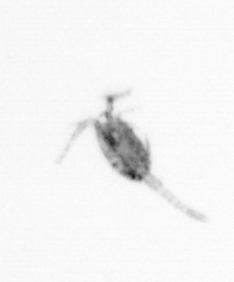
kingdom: Animalia
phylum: Arthropoda
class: Copepoda
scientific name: Copepoda
